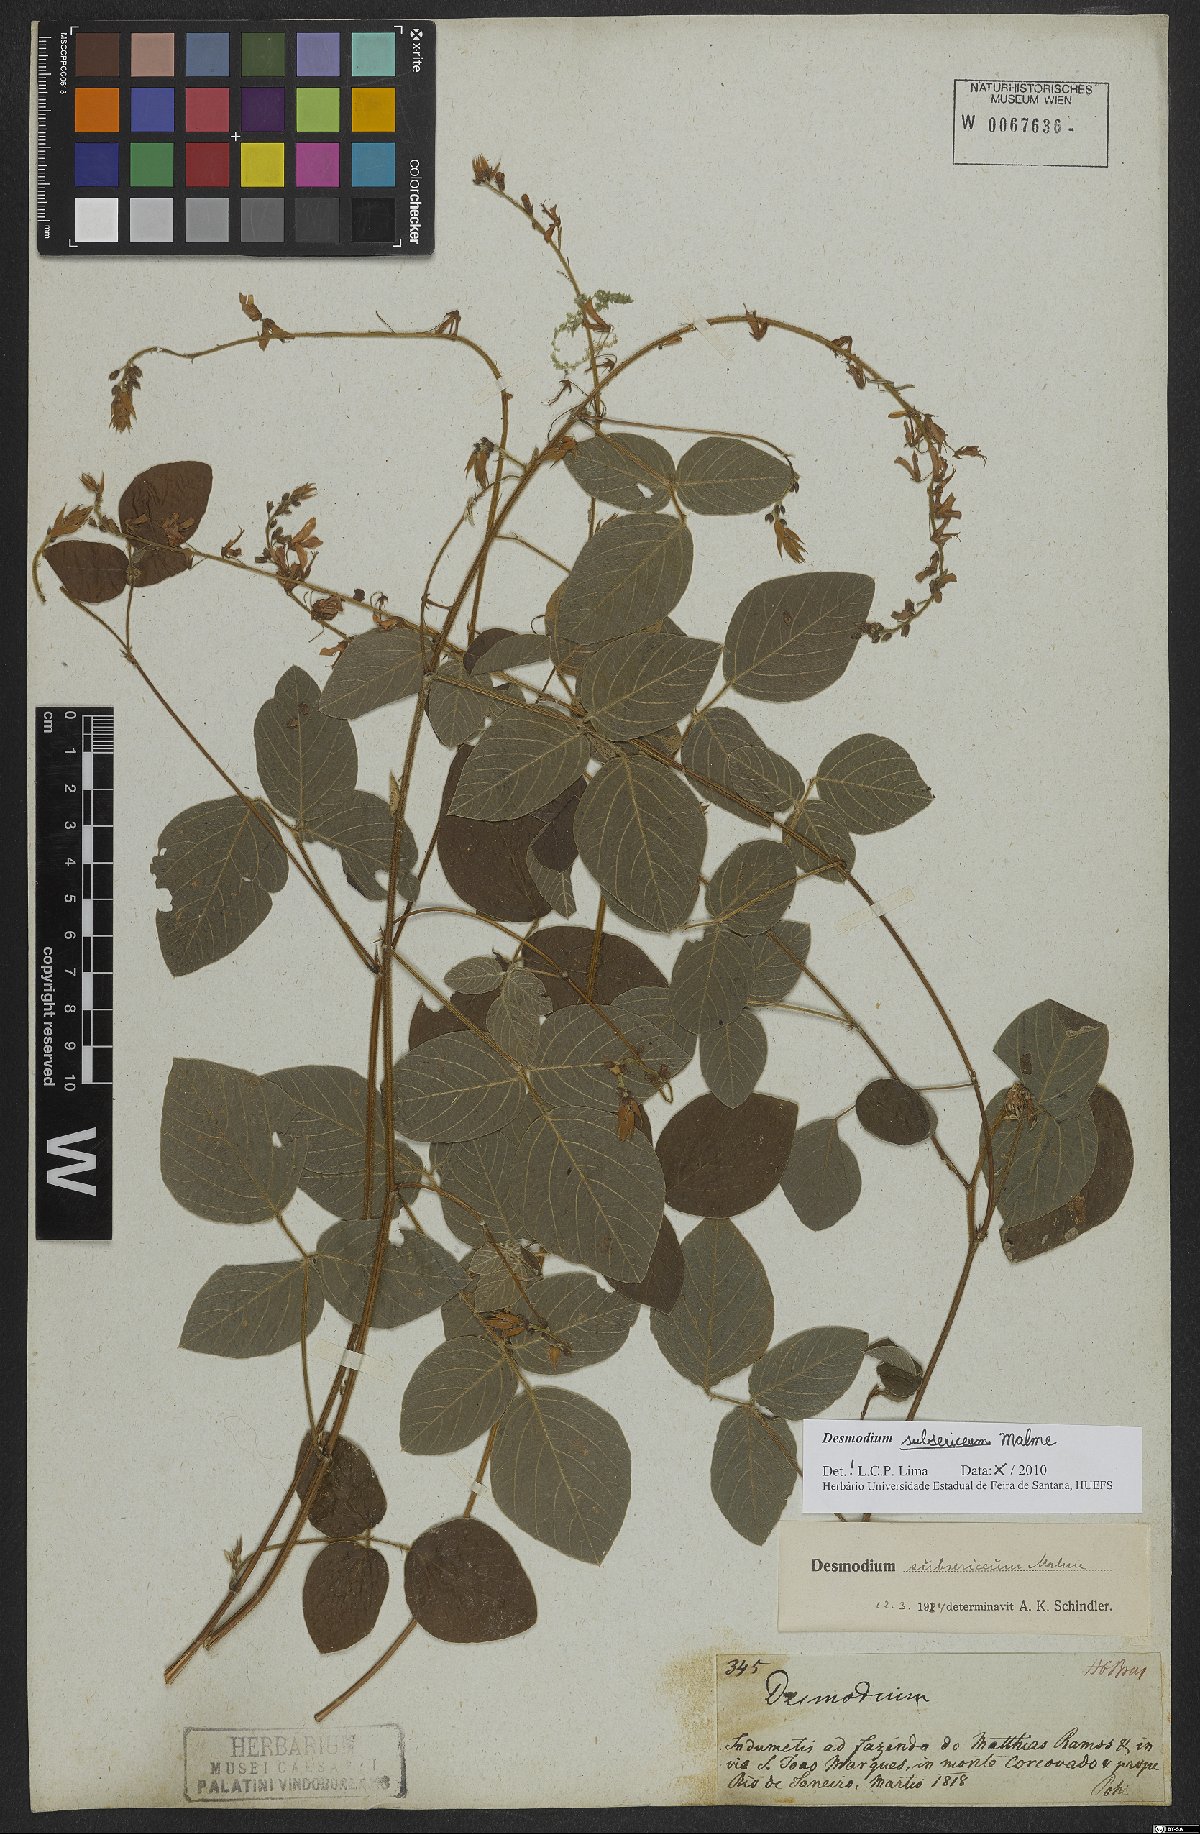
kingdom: Plantae
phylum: Tracheophyta
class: Magnoliopsida
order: Fabales
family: Fabaceae
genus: Desmodium
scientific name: Desmodium subsericeum
